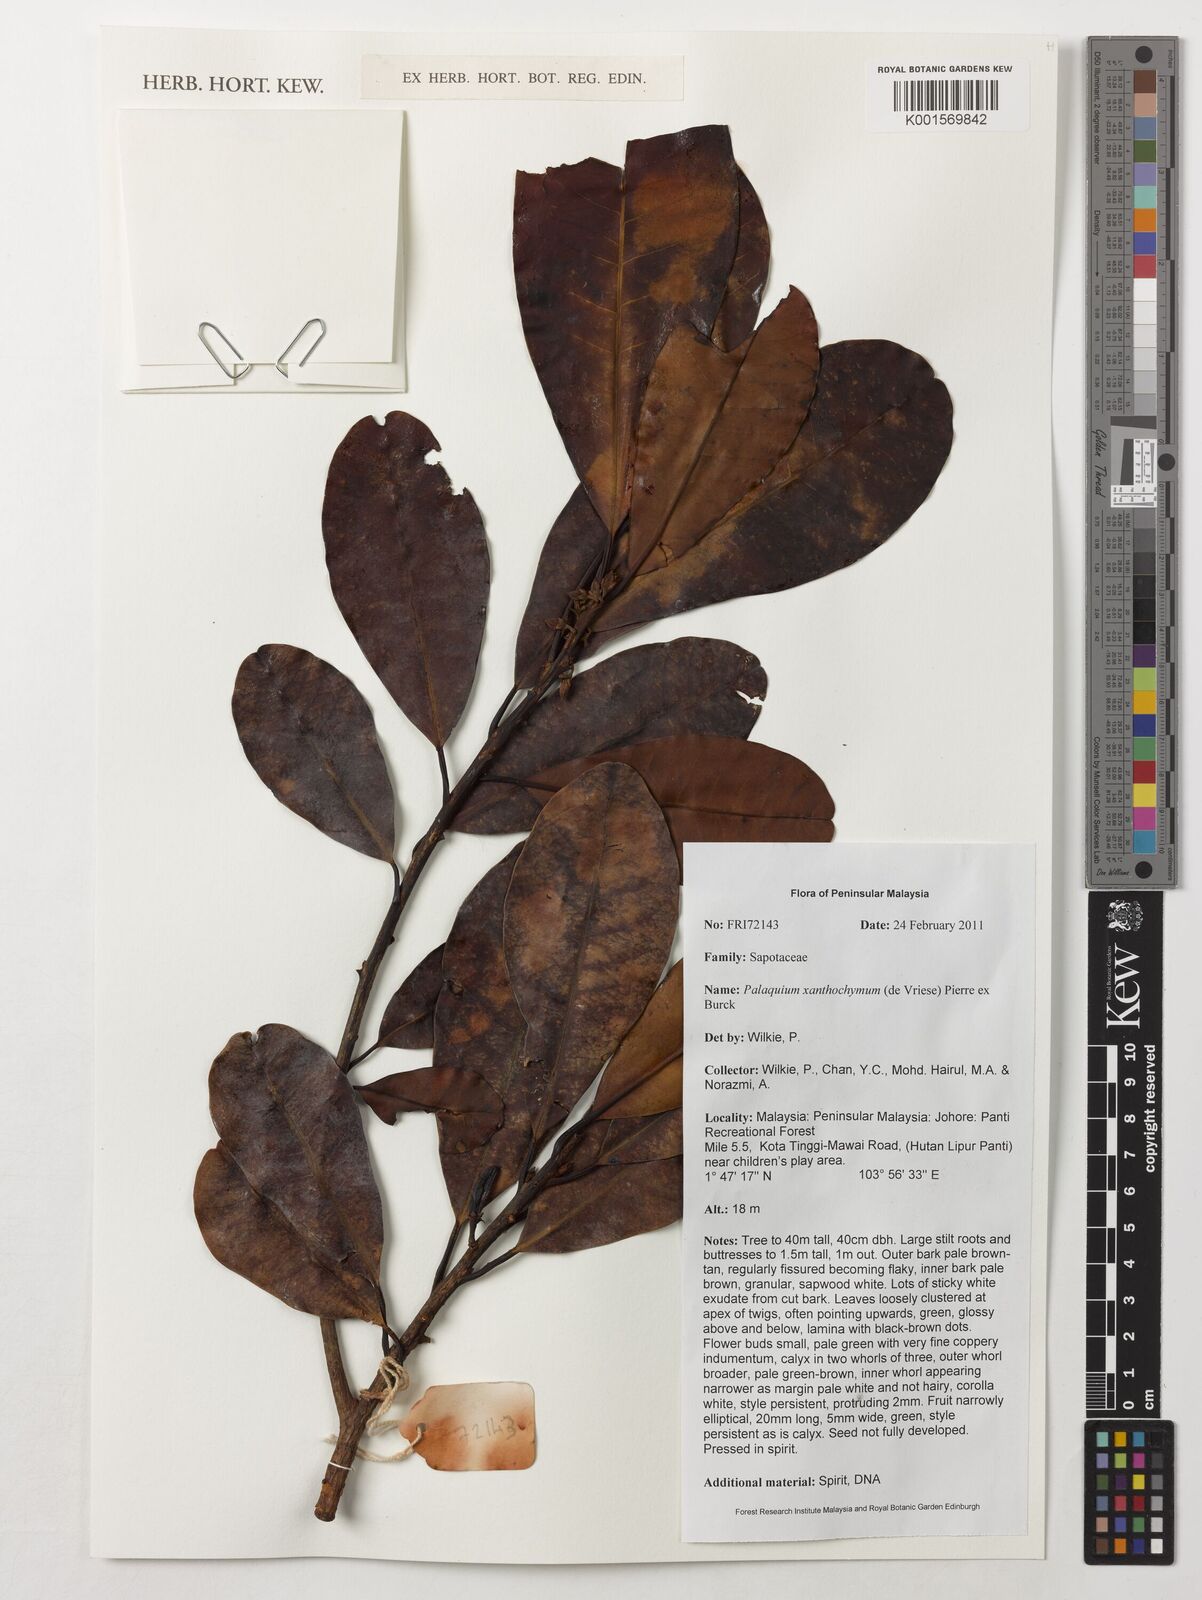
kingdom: Plantae
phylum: Tracheophyta
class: Magnoliopsida
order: Ericales
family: Sapotaceae
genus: Palaquium
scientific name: Palaquium xanthochymum
